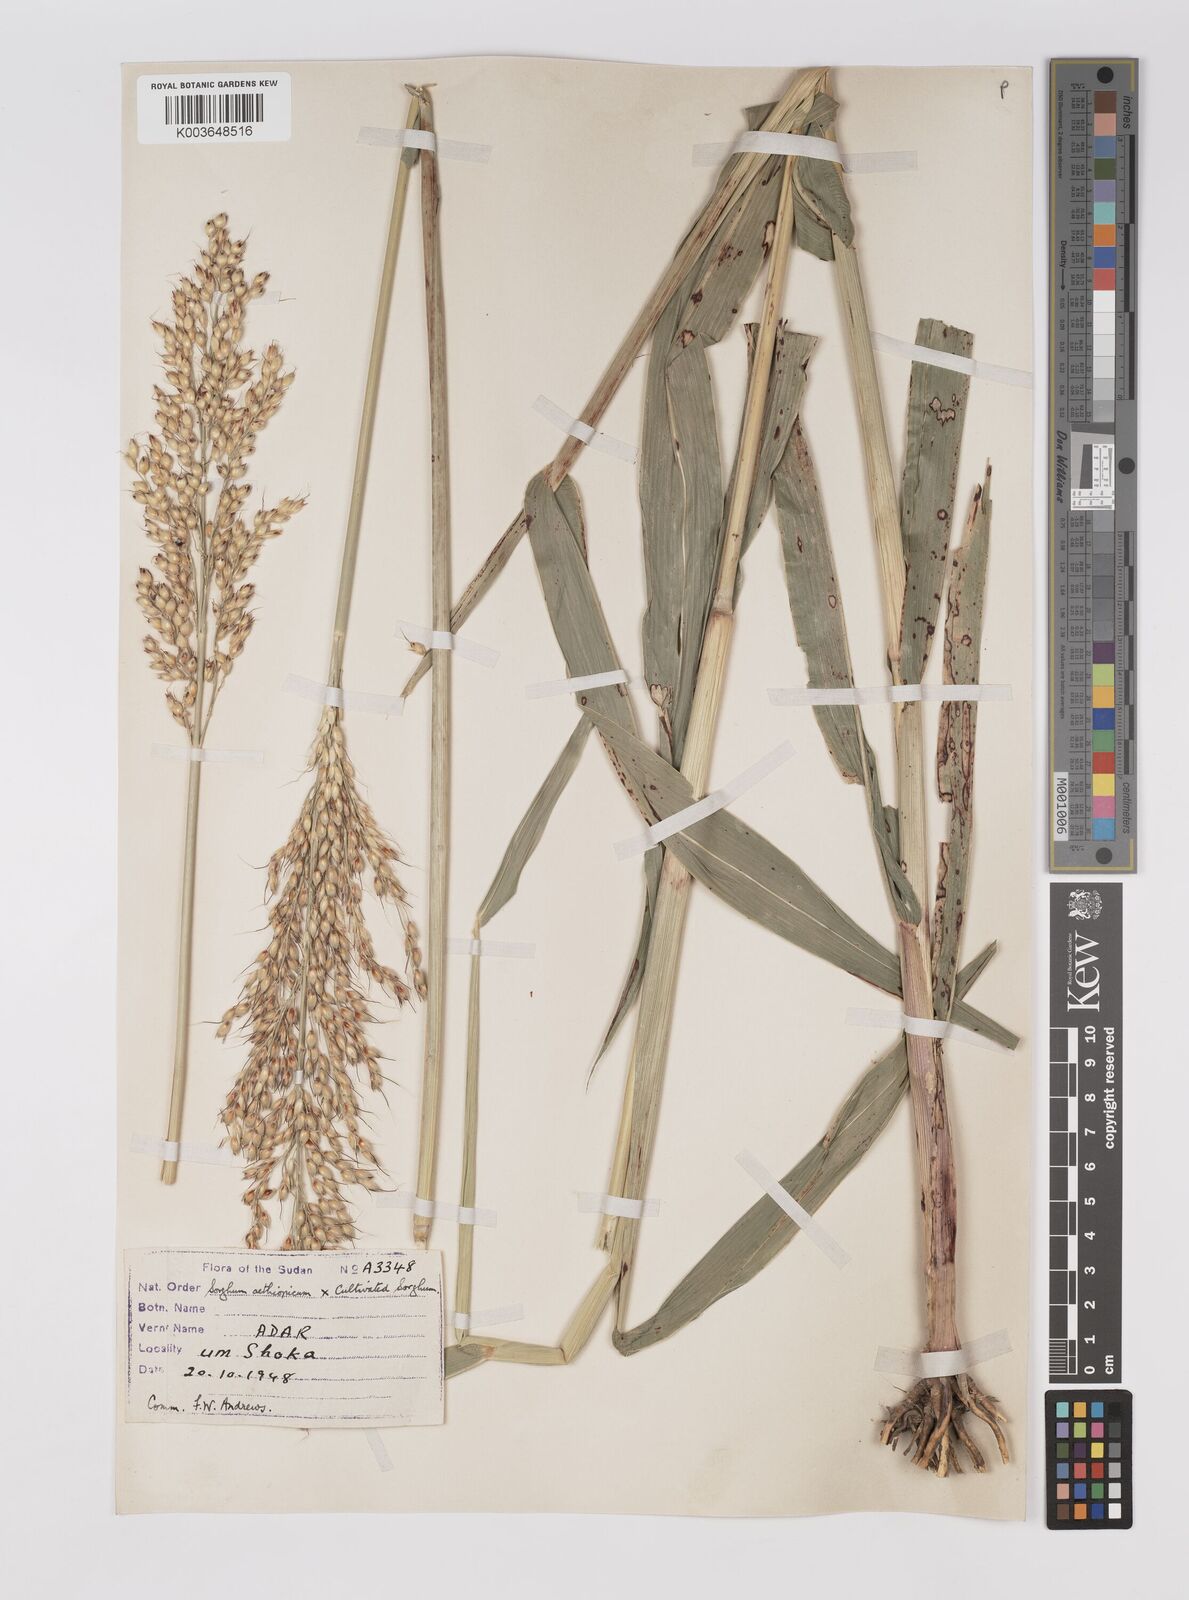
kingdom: Plantae
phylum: Tracheophyta
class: Liliopsida
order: Poales
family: Poaceae
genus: Sorghum
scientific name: Sorghum drummondii
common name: Sudangrass
